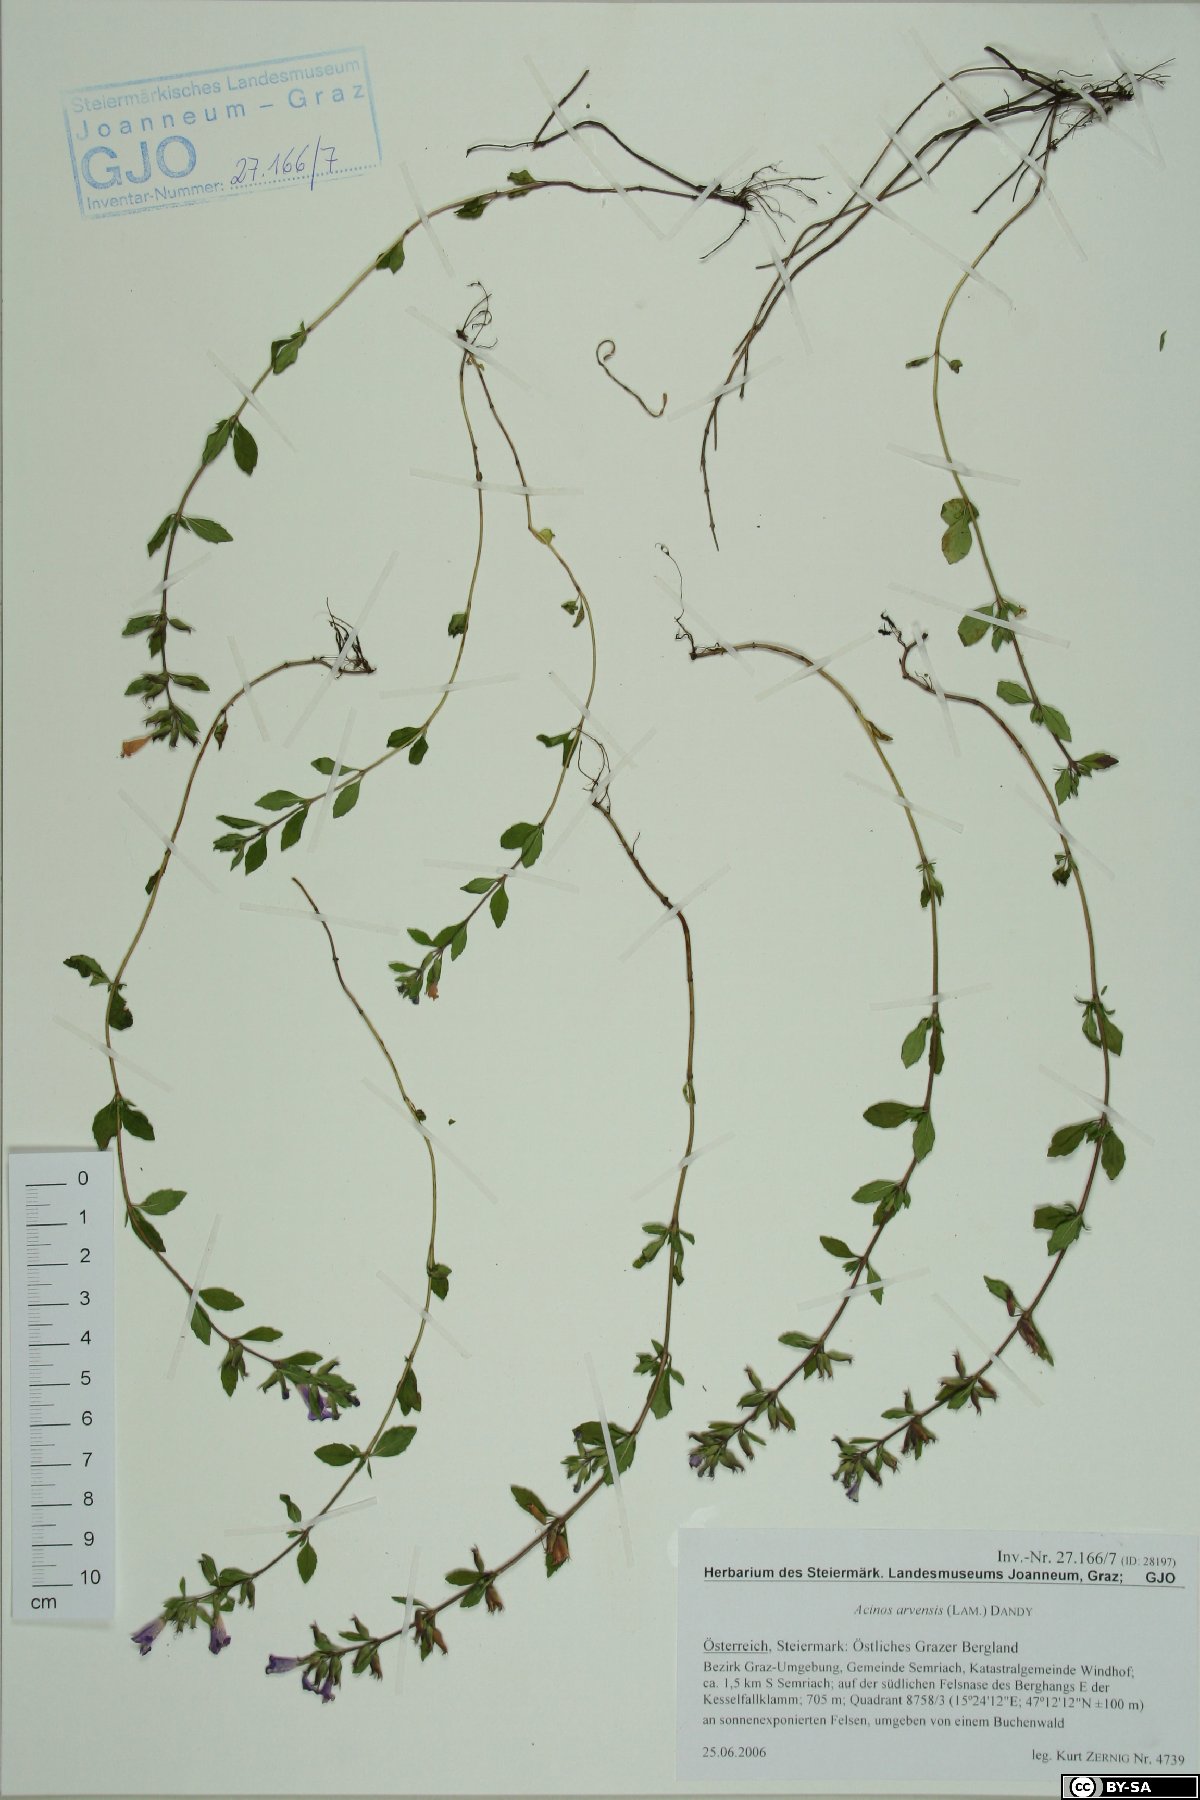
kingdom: Plantae
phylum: Tracheophyta
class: Magnoliopsida
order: Lamiales
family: Lamiaceae
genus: Clinopodium
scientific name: Clinopodium acinos
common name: Basil thyme
